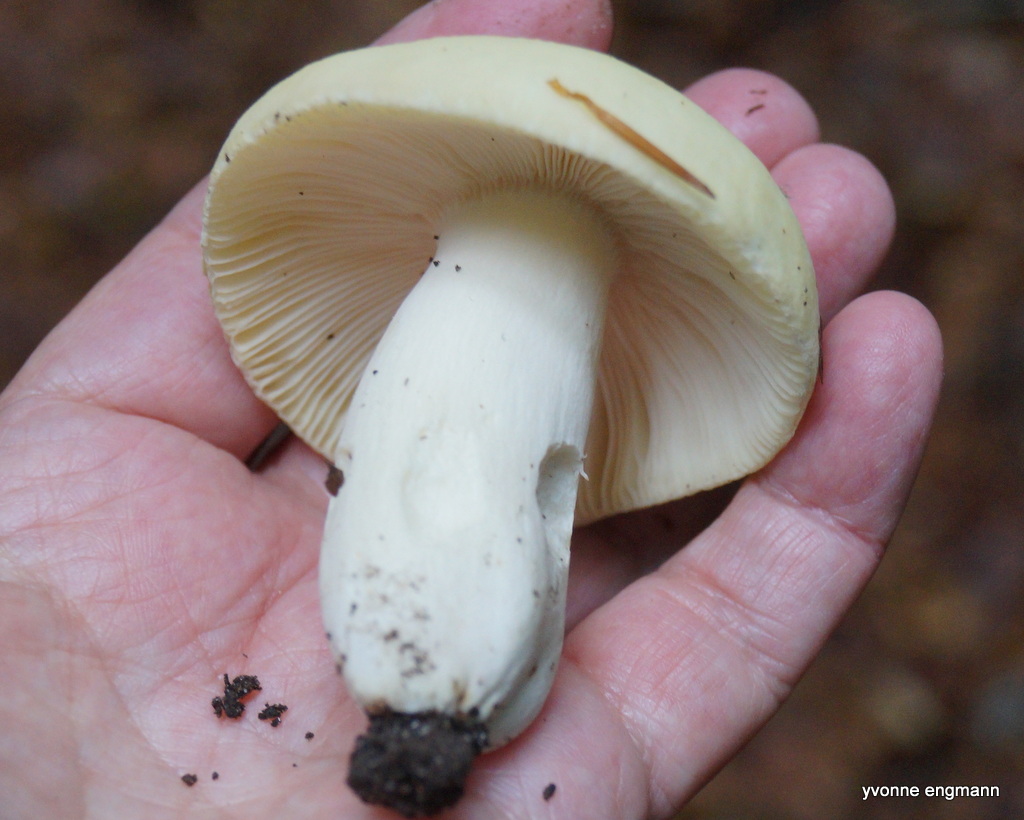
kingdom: Fungi
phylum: Basidiomycota
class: Agaricomycetes
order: Russulales
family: Russulaceae
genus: Russula
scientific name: Russula violeipes
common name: ferskengul skørhat
